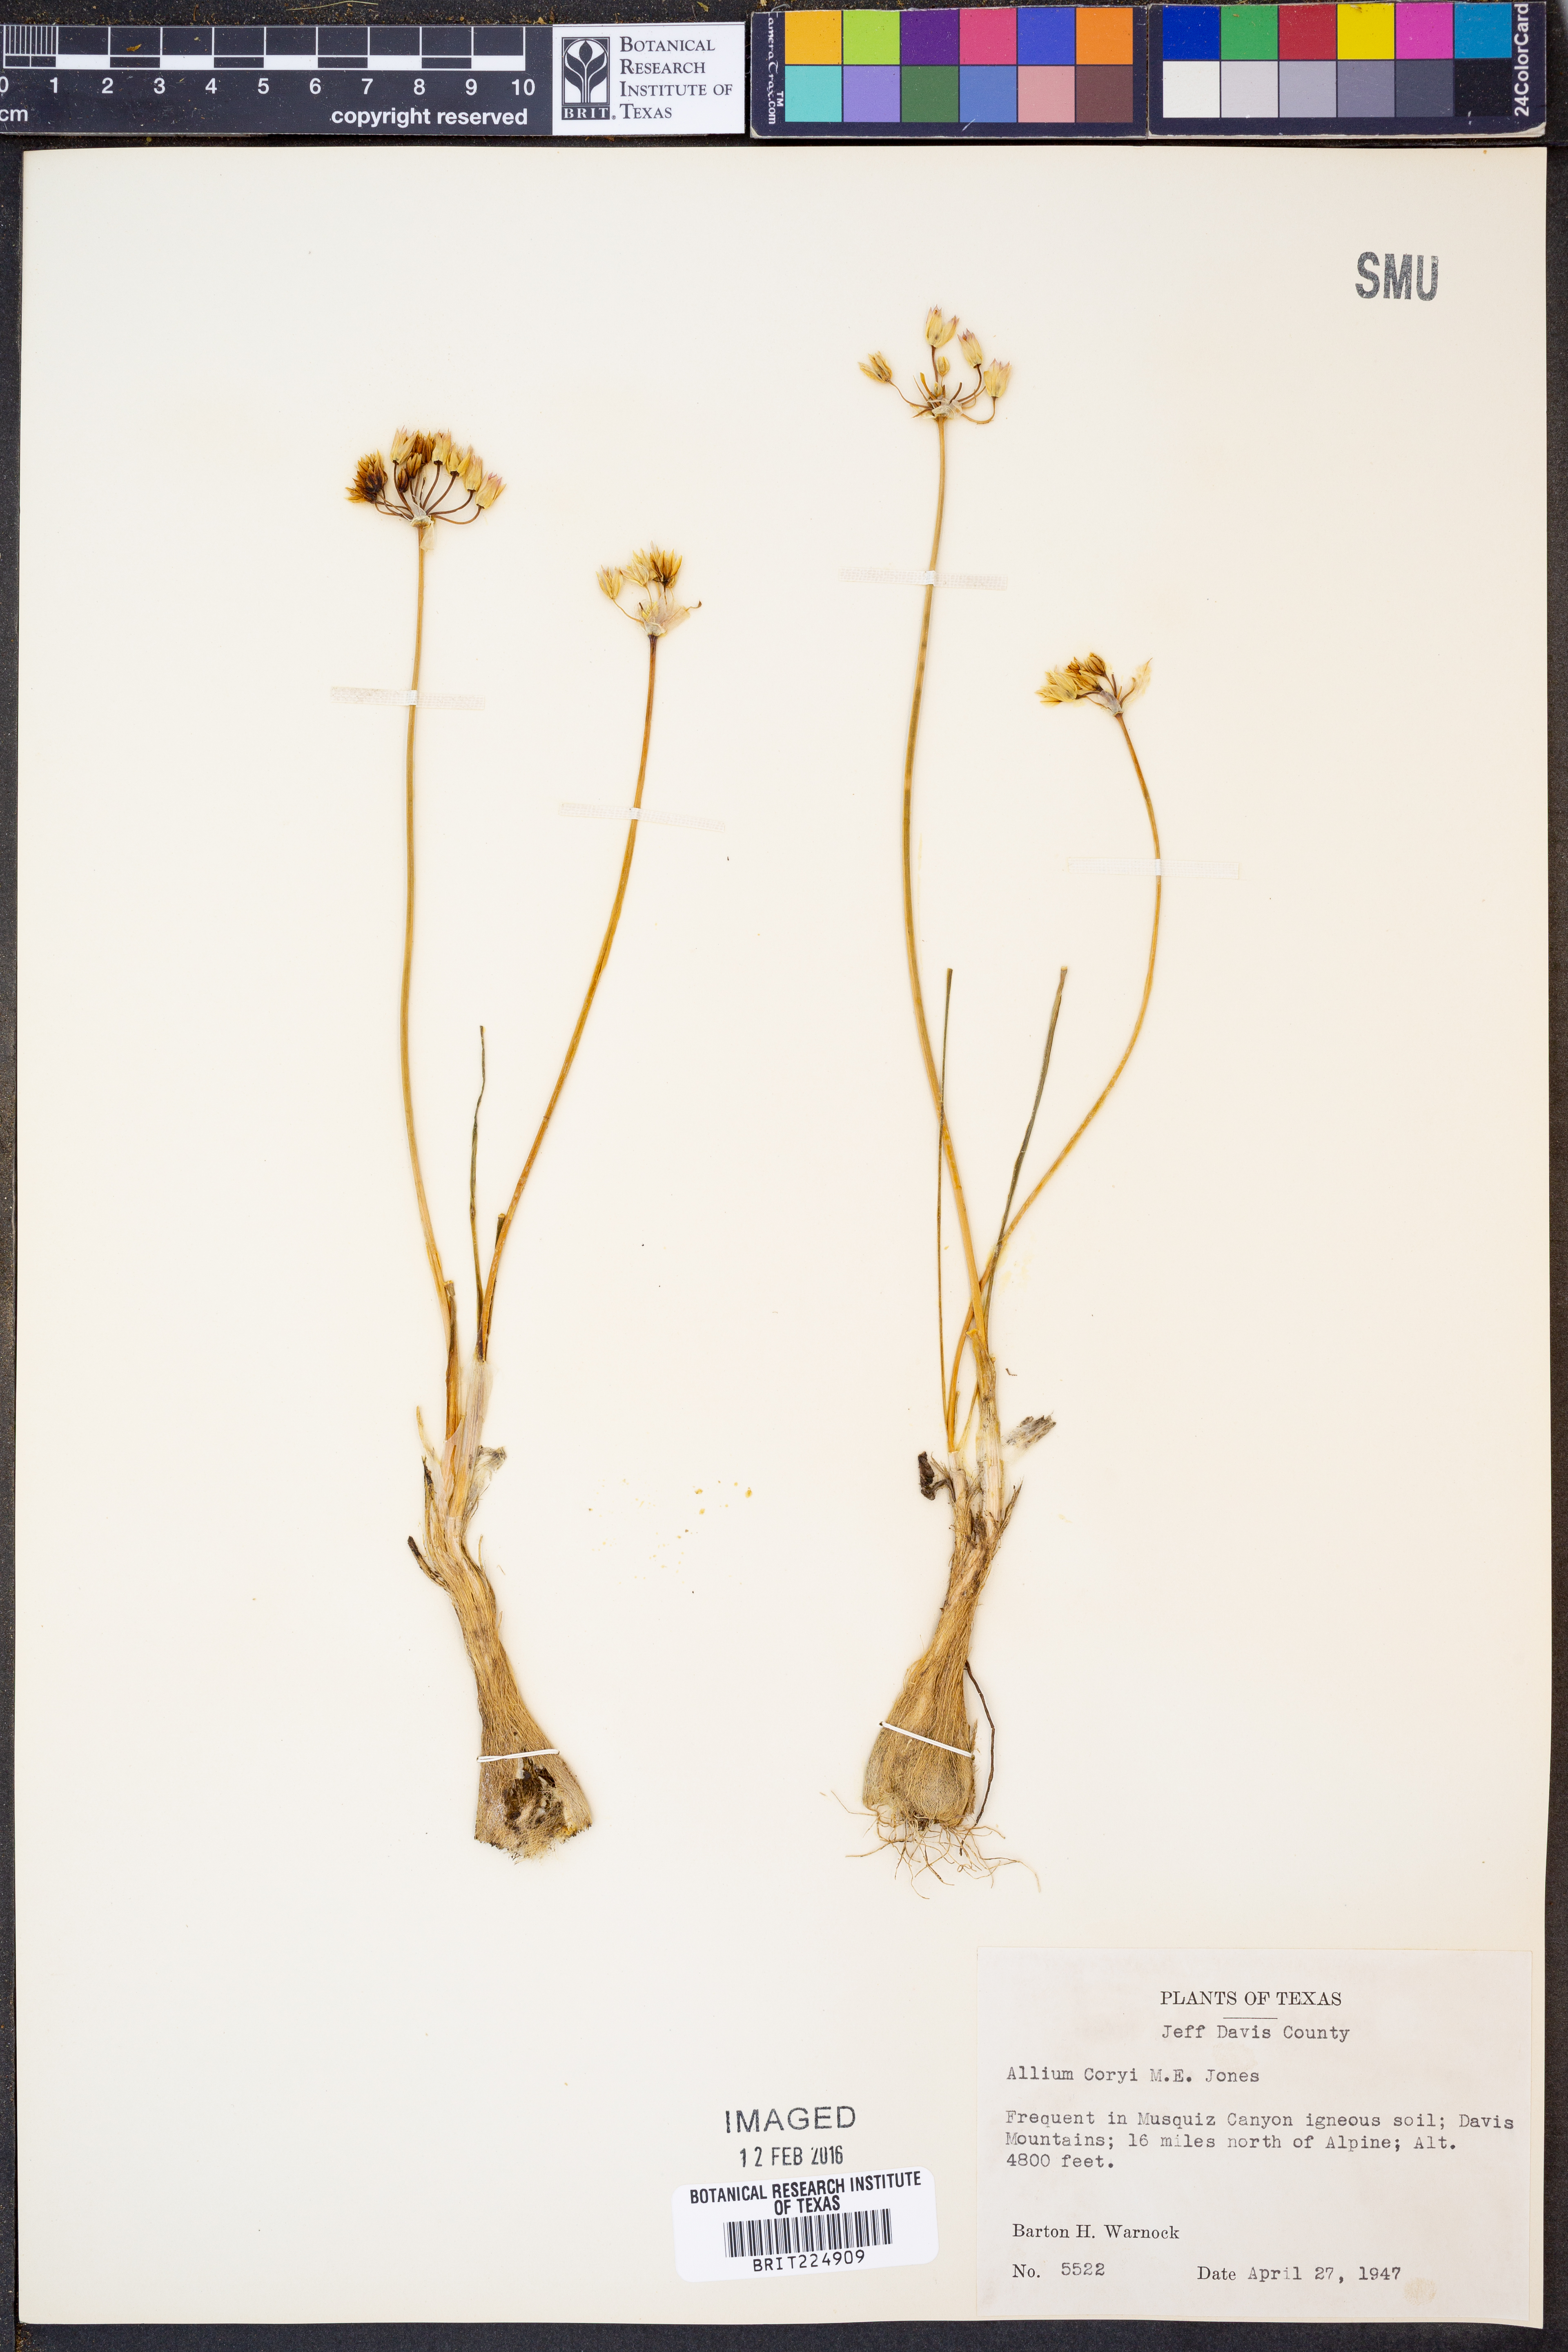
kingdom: Plantae
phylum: Tracheophyta
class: Liliopsida
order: Asparagales
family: Amaryllidaceae
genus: Allium
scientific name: Allium coryi
